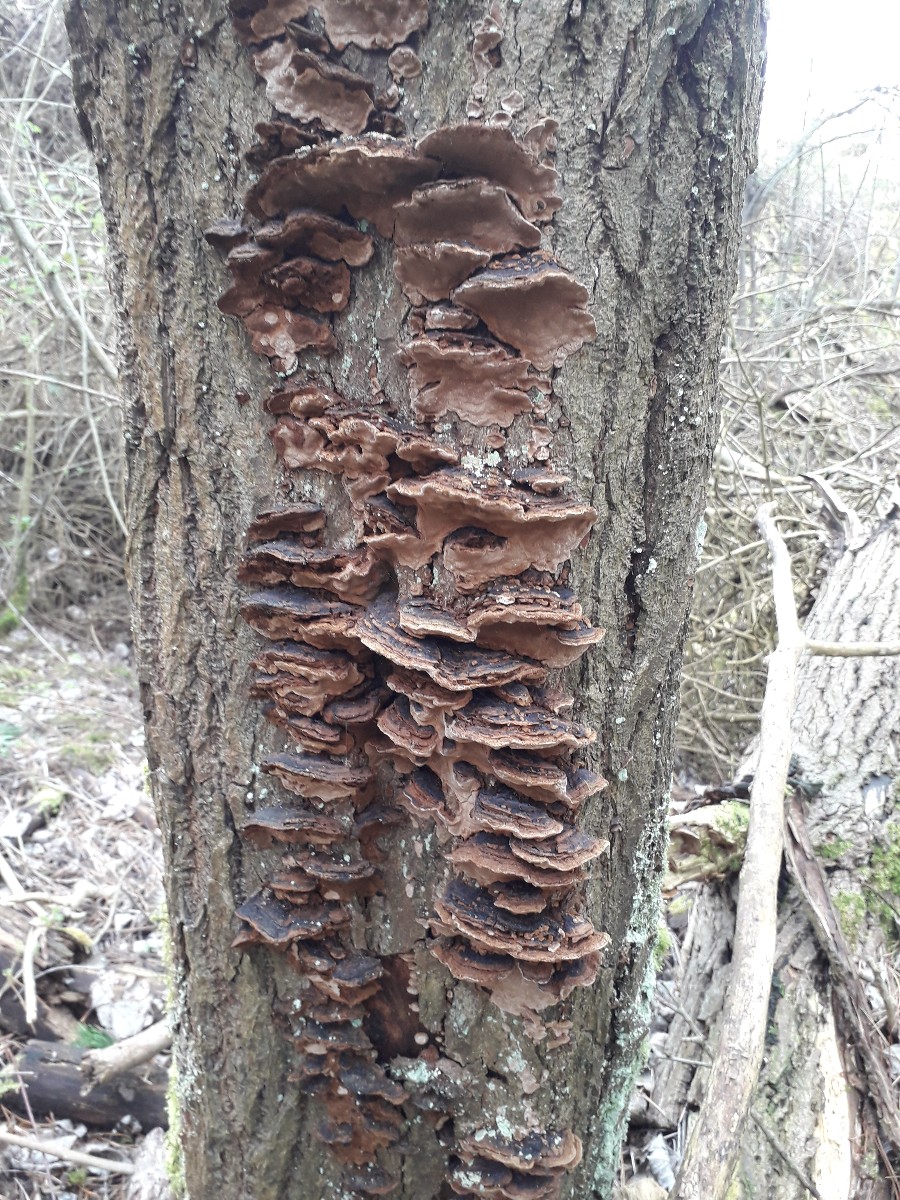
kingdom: Fungi
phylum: Basidiomycota
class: Agaricomycetes
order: Hymenochaetales
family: Hymenochaetaceae
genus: Phellinopsis
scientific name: Phellinopsis conchata
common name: pile-ildporesvamp
